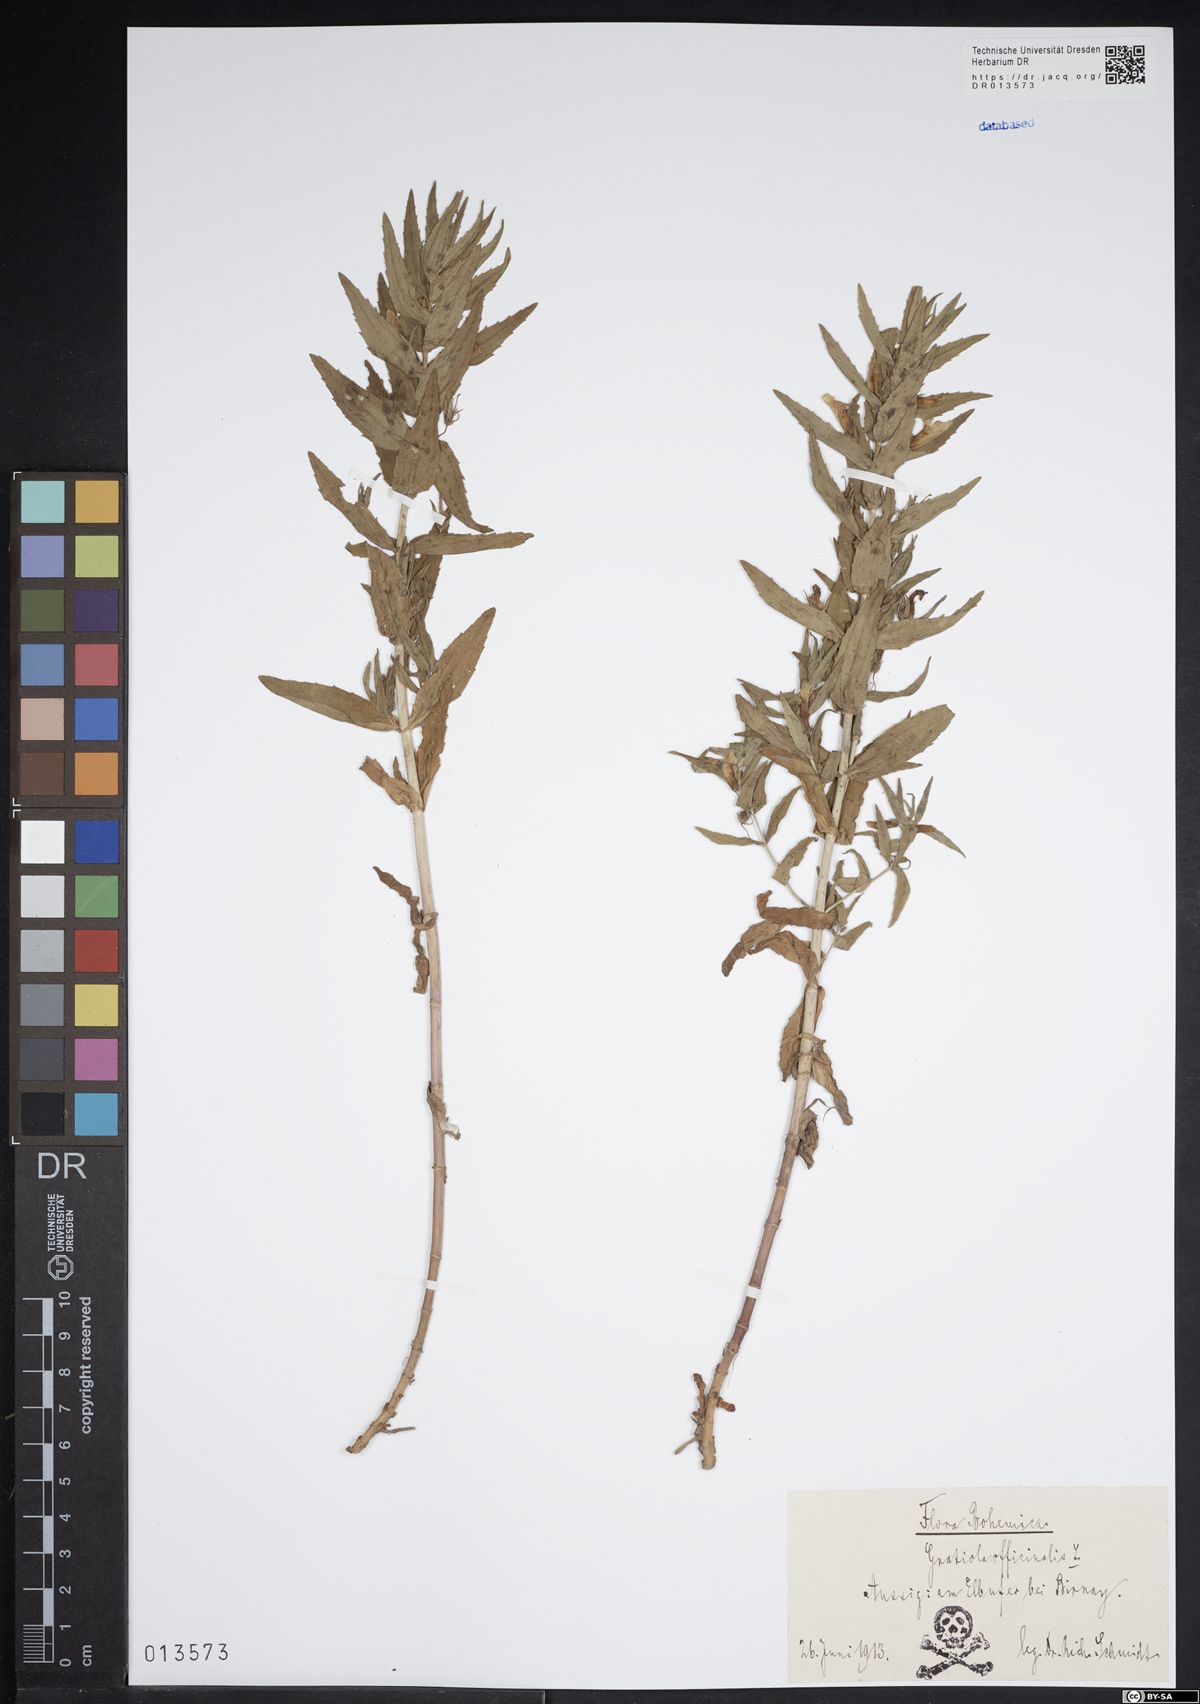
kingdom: Plantae
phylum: Tracheophyta
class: Magnoliopsida
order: Lamiales
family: Plantaginaceae
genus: Gratiola
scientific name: Gratiola officinalis
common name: Gratiola
